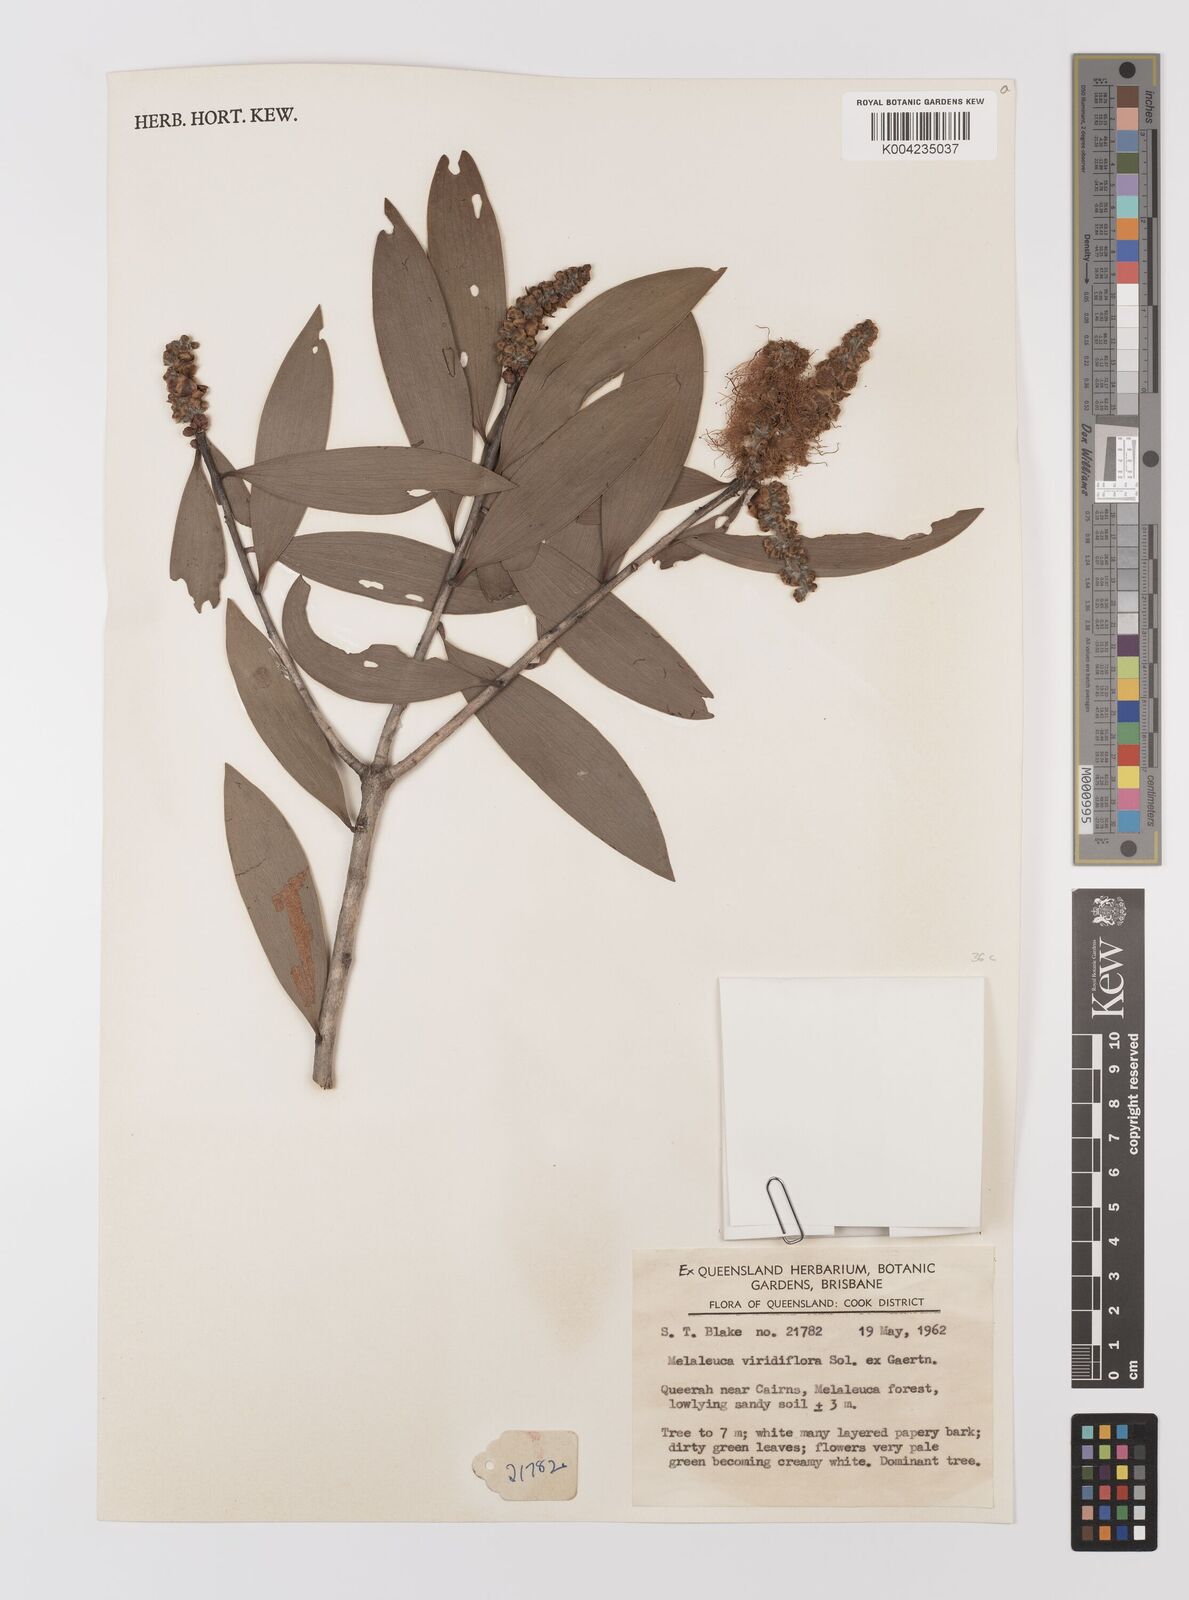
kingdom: Plantae
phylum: Tracheophyta
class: Magnoliopsida
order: Myrtales
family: Myrtaceae
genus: Melaleuca
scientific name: Melaleuca viridiflora
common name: Brown-leaved paperbark
